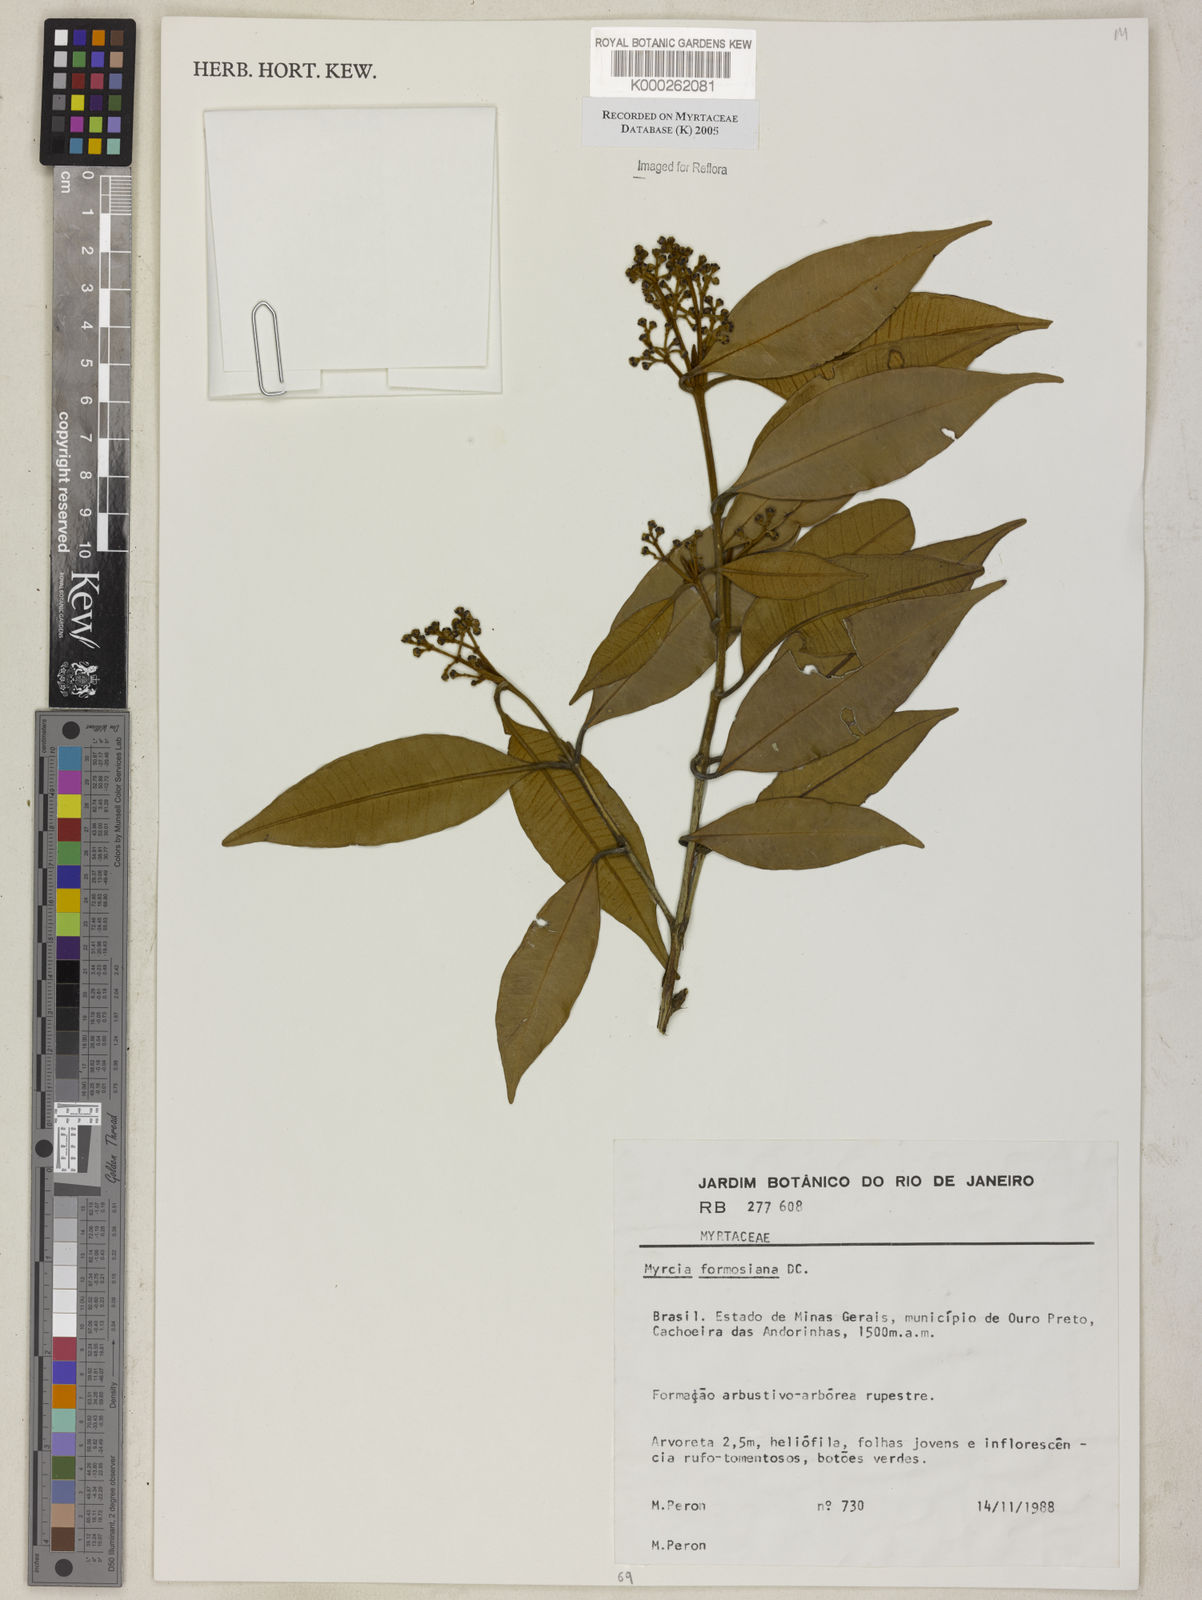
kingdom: Plantae
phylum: Tracheophyta
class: Magnoliopsida
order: Myrtales
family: Myrtaceae
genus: Myrcia
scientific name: Myrcia splendens
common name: Surinam cherry
